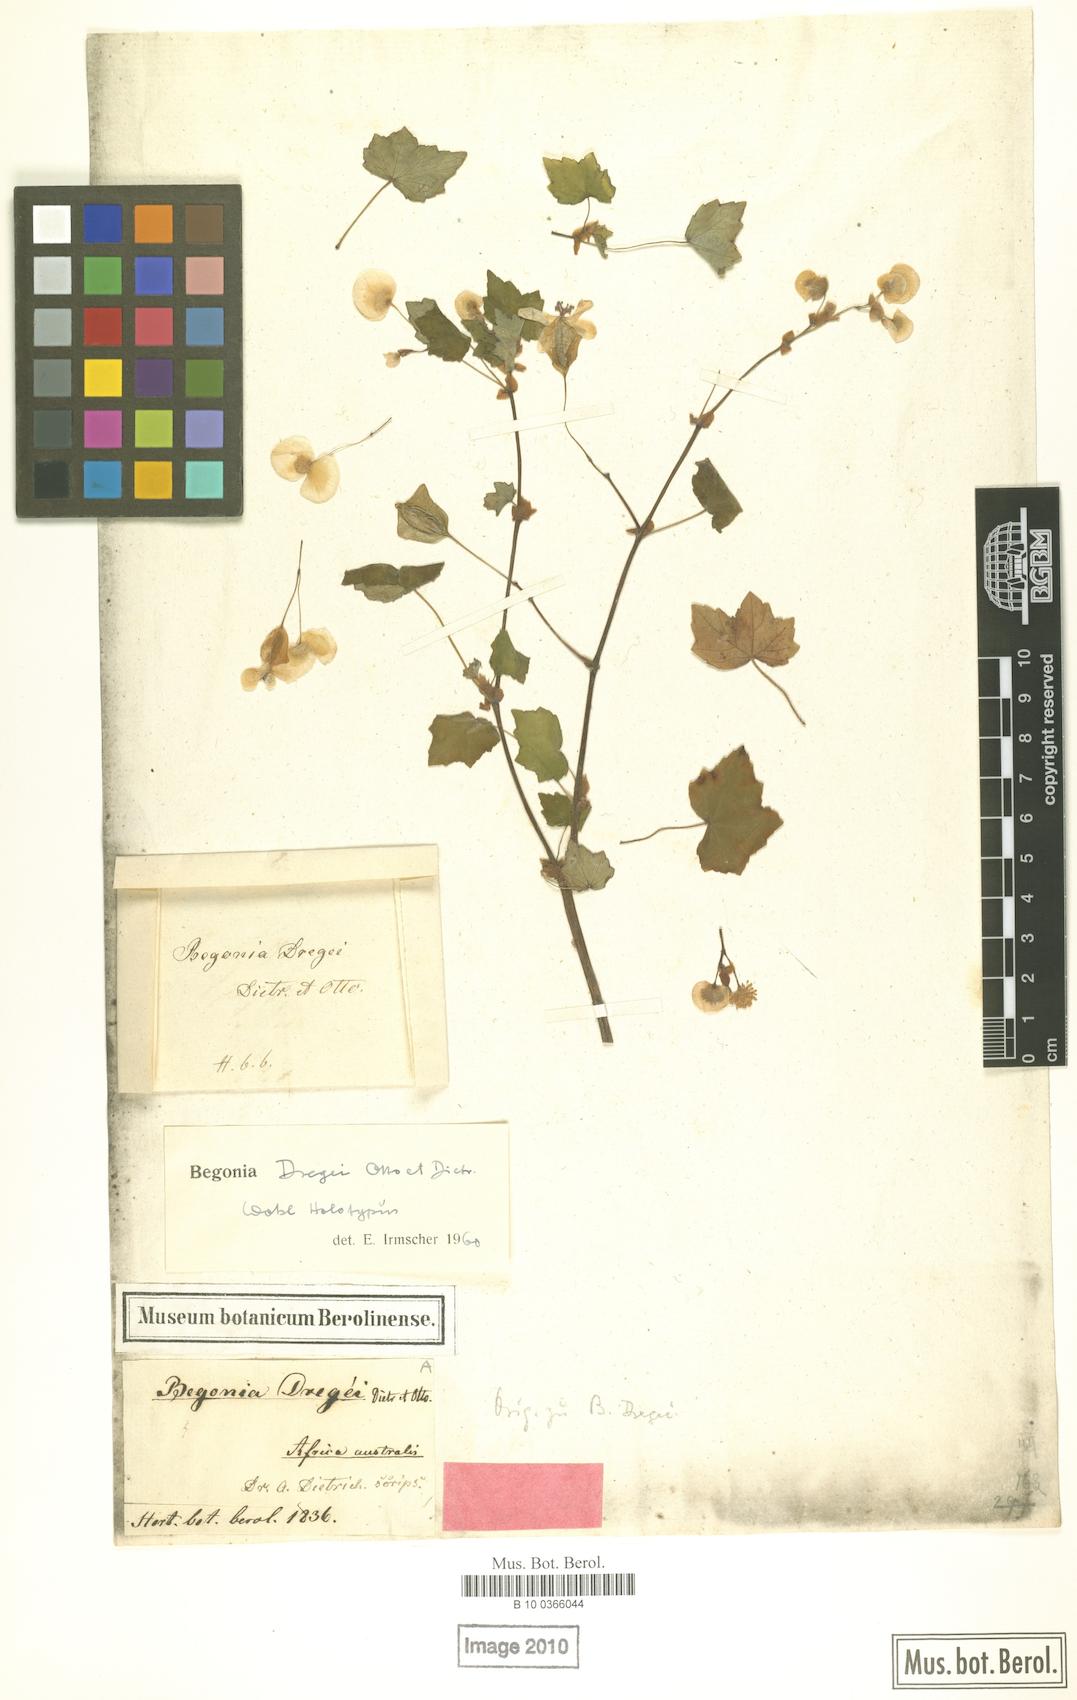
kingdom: Plantae
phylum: Tracheophyta
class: Magnoliopsida
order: Cucurbitales
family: Begoniaceae
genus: Begonia
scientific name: Begonia dregei
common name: Grape-leaf begonia
